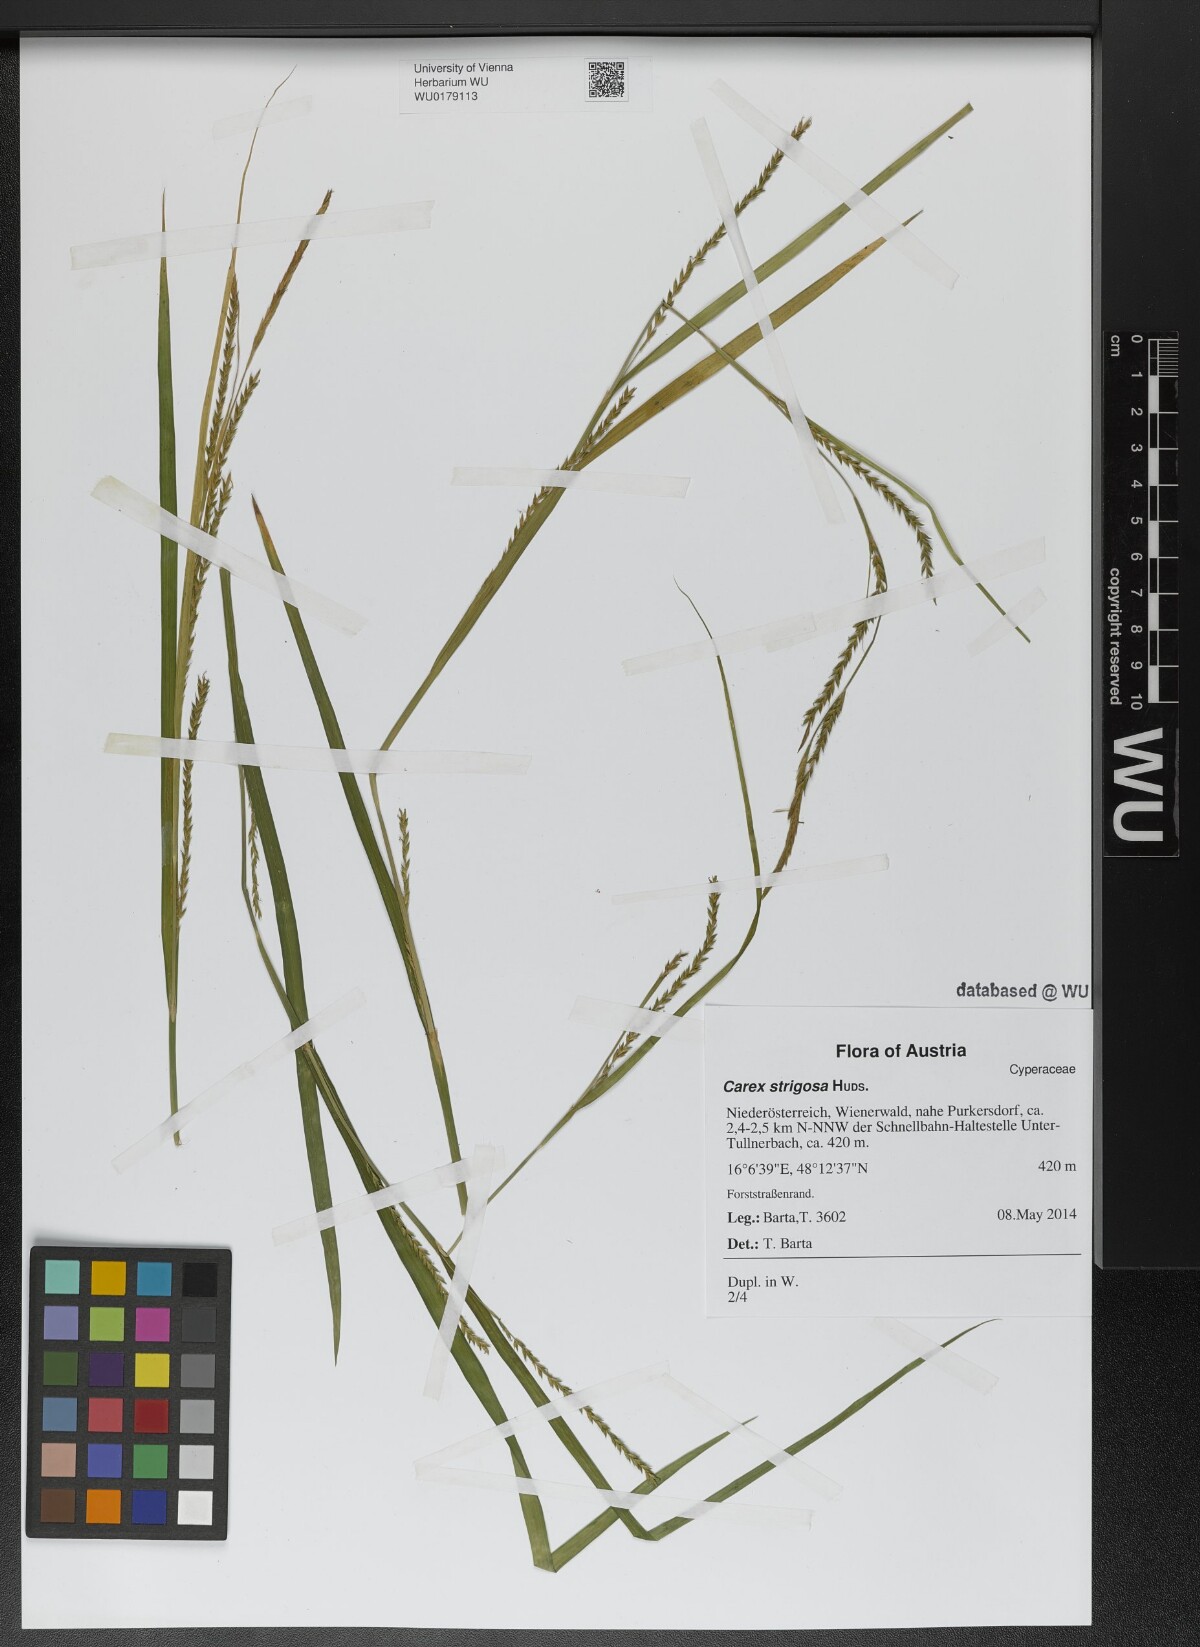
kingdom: Plantae
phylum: Tracheophyta
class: Liliopsida
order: Poales
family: Cyperaceae
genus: Carex
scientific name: Carex strigosa
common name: Thin-spiked wood-sedge
